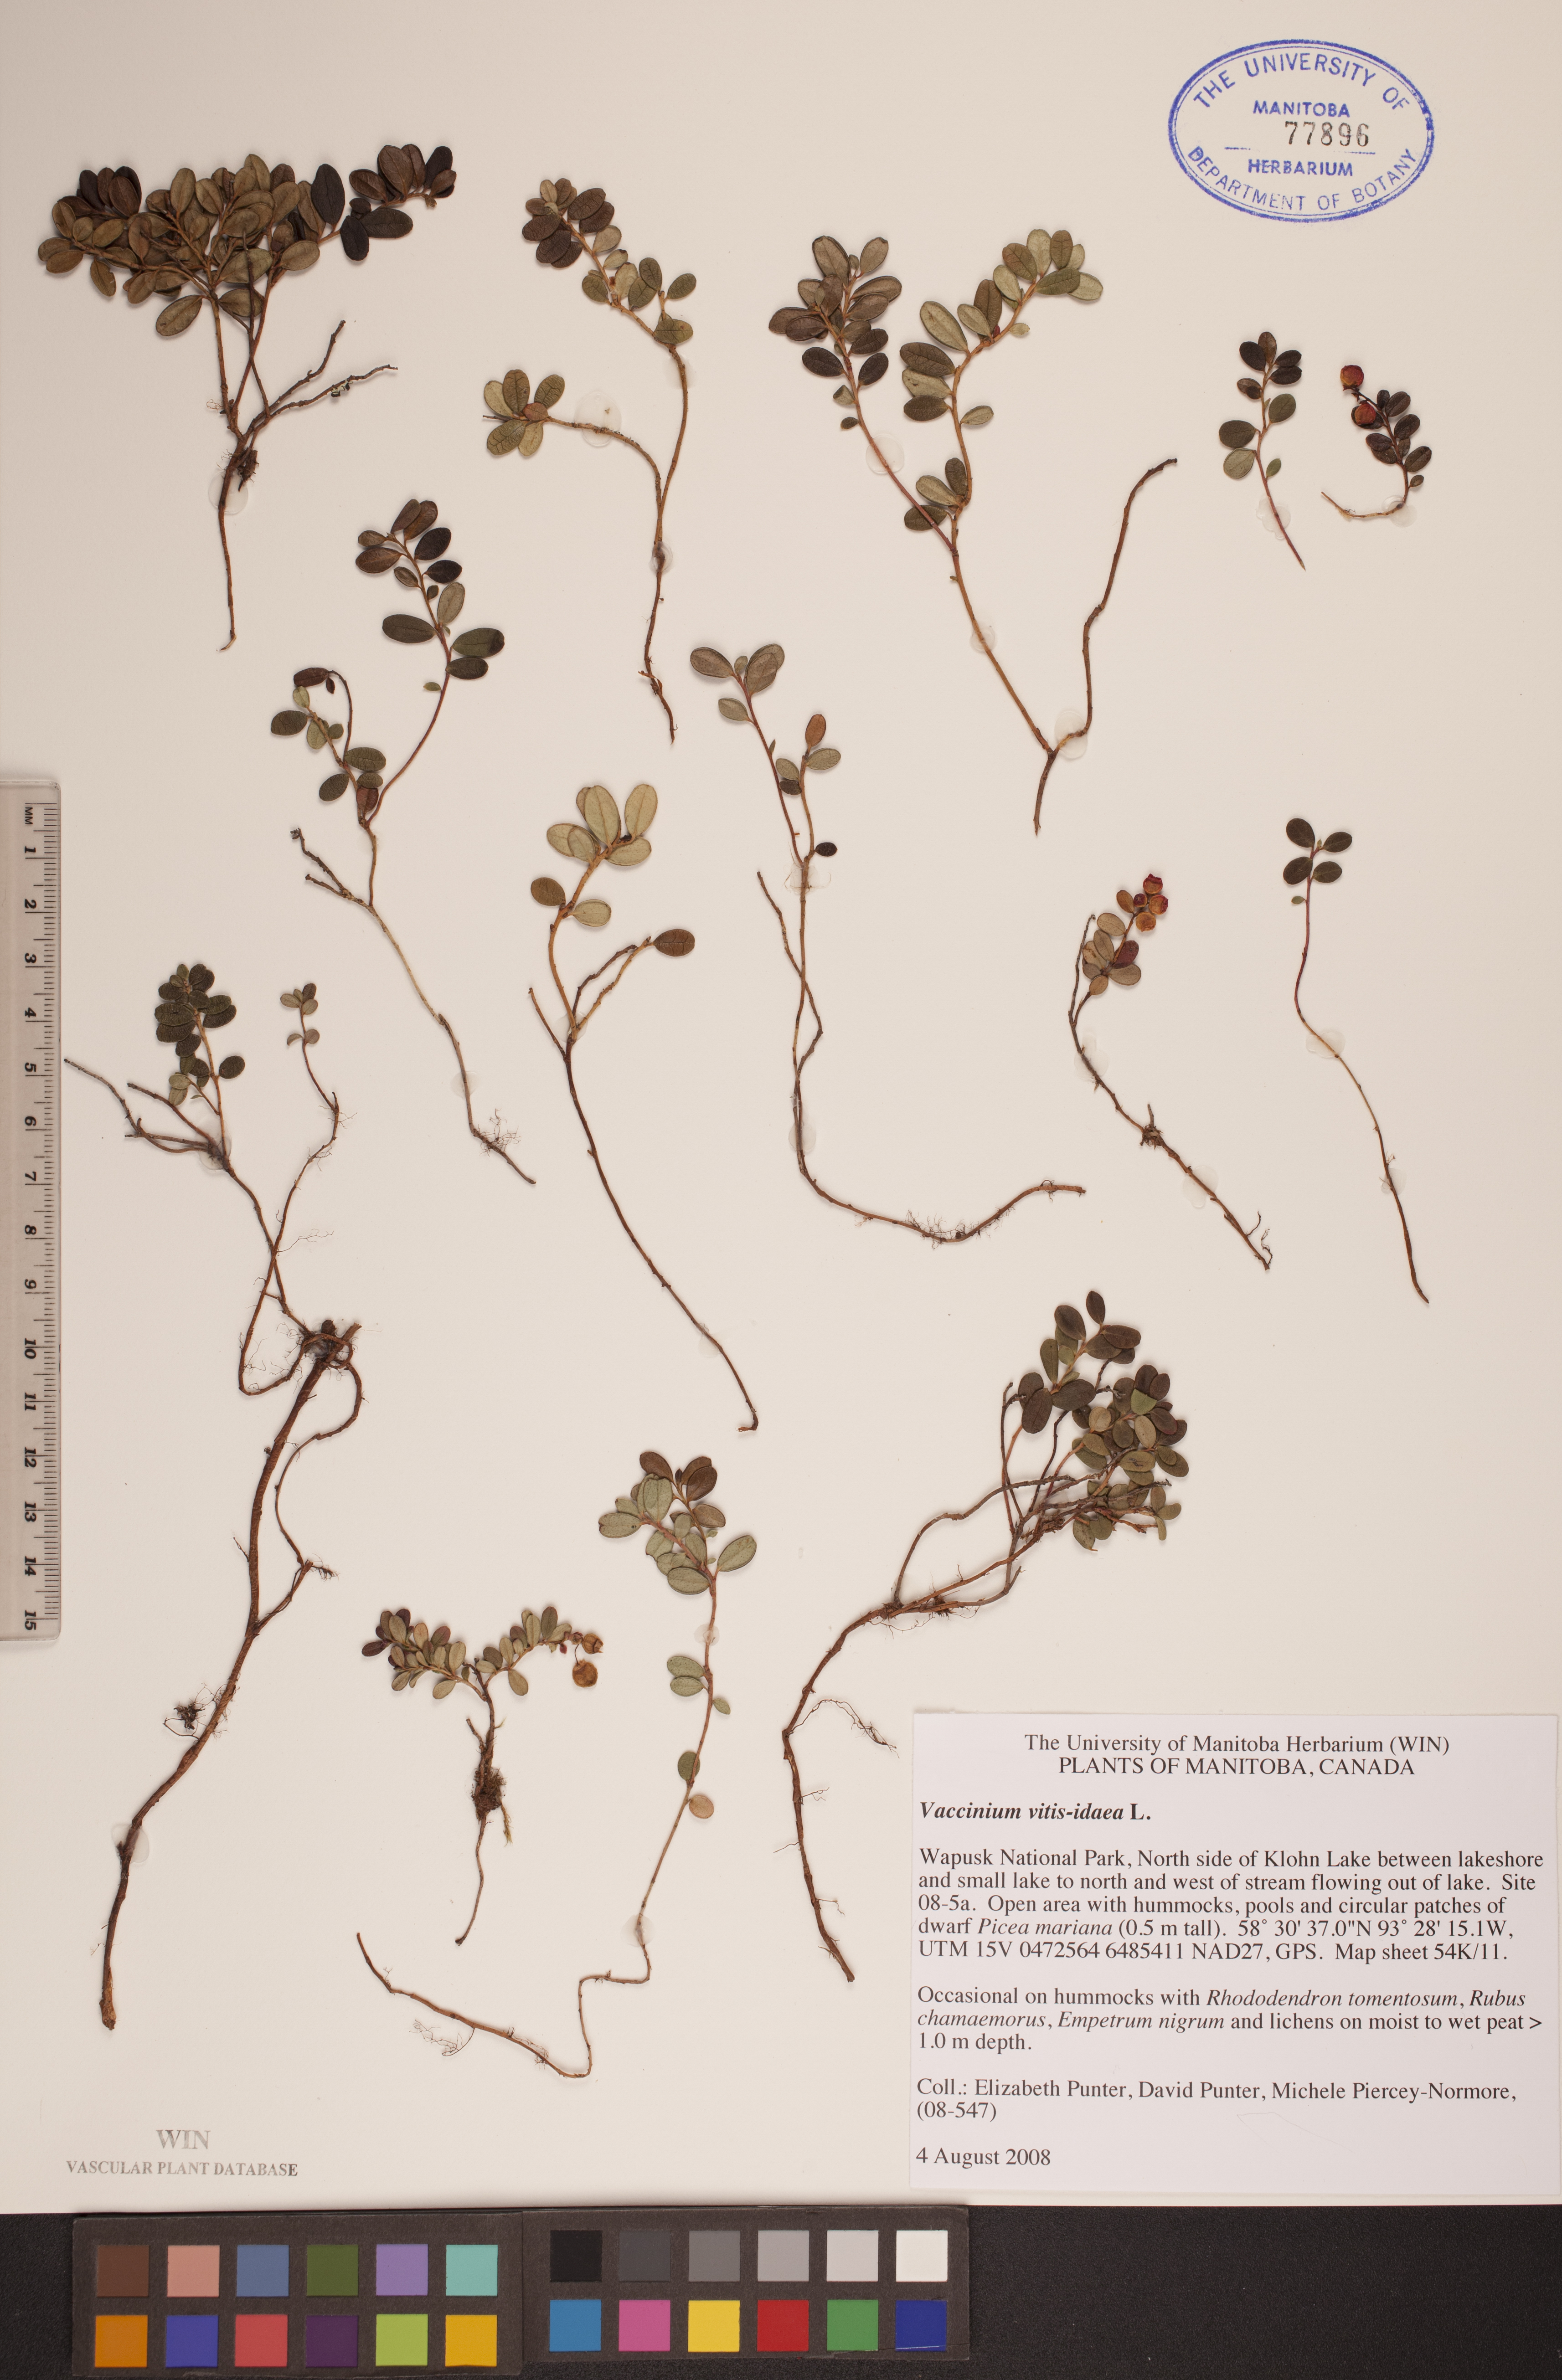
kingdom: Plantae
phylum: Tracheophyta
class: Magnoliopsida
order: Ericales
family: Ericaceae
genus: Vaccinium
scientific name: Vaccinium vitis-idaea
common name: Cowberry
